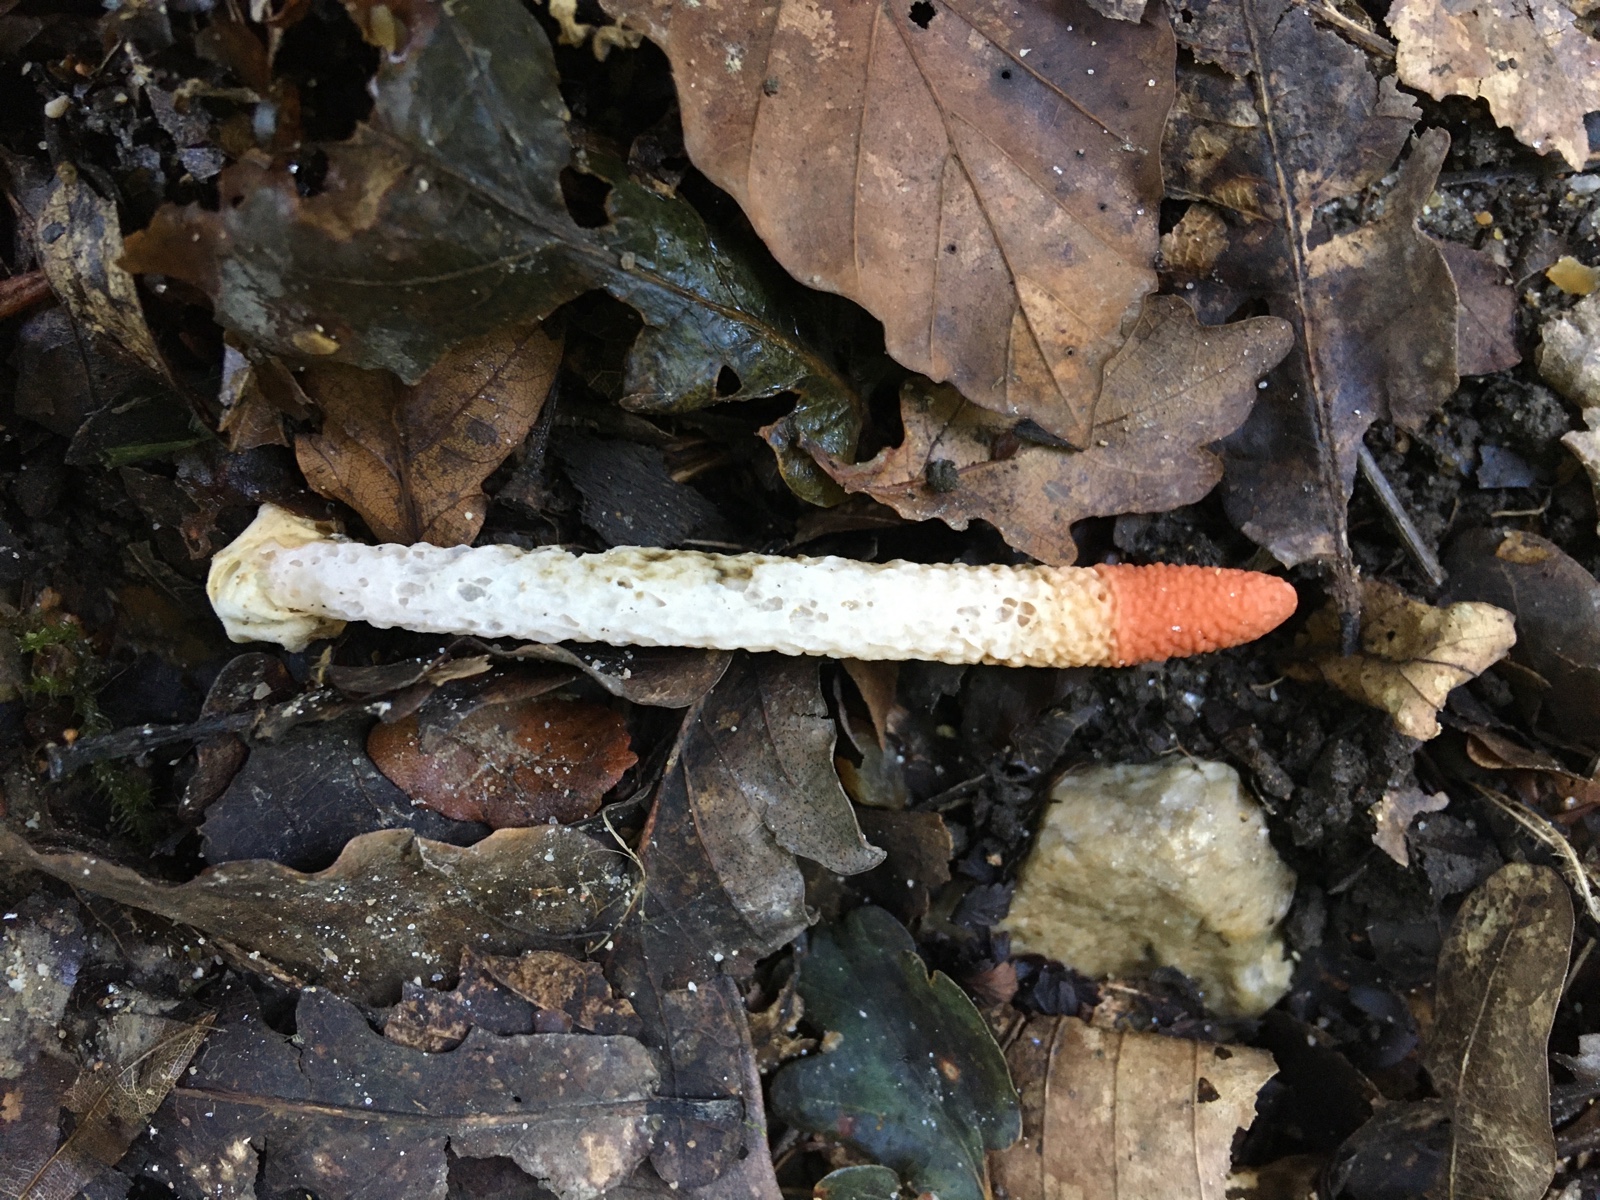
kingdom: Fungi
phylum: Basidiomycota
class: Agaricomycetes
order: Phallales
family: Phallaceae
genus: Mutinus
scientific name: Mutinus caninus
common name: hunde-stinksvamp
